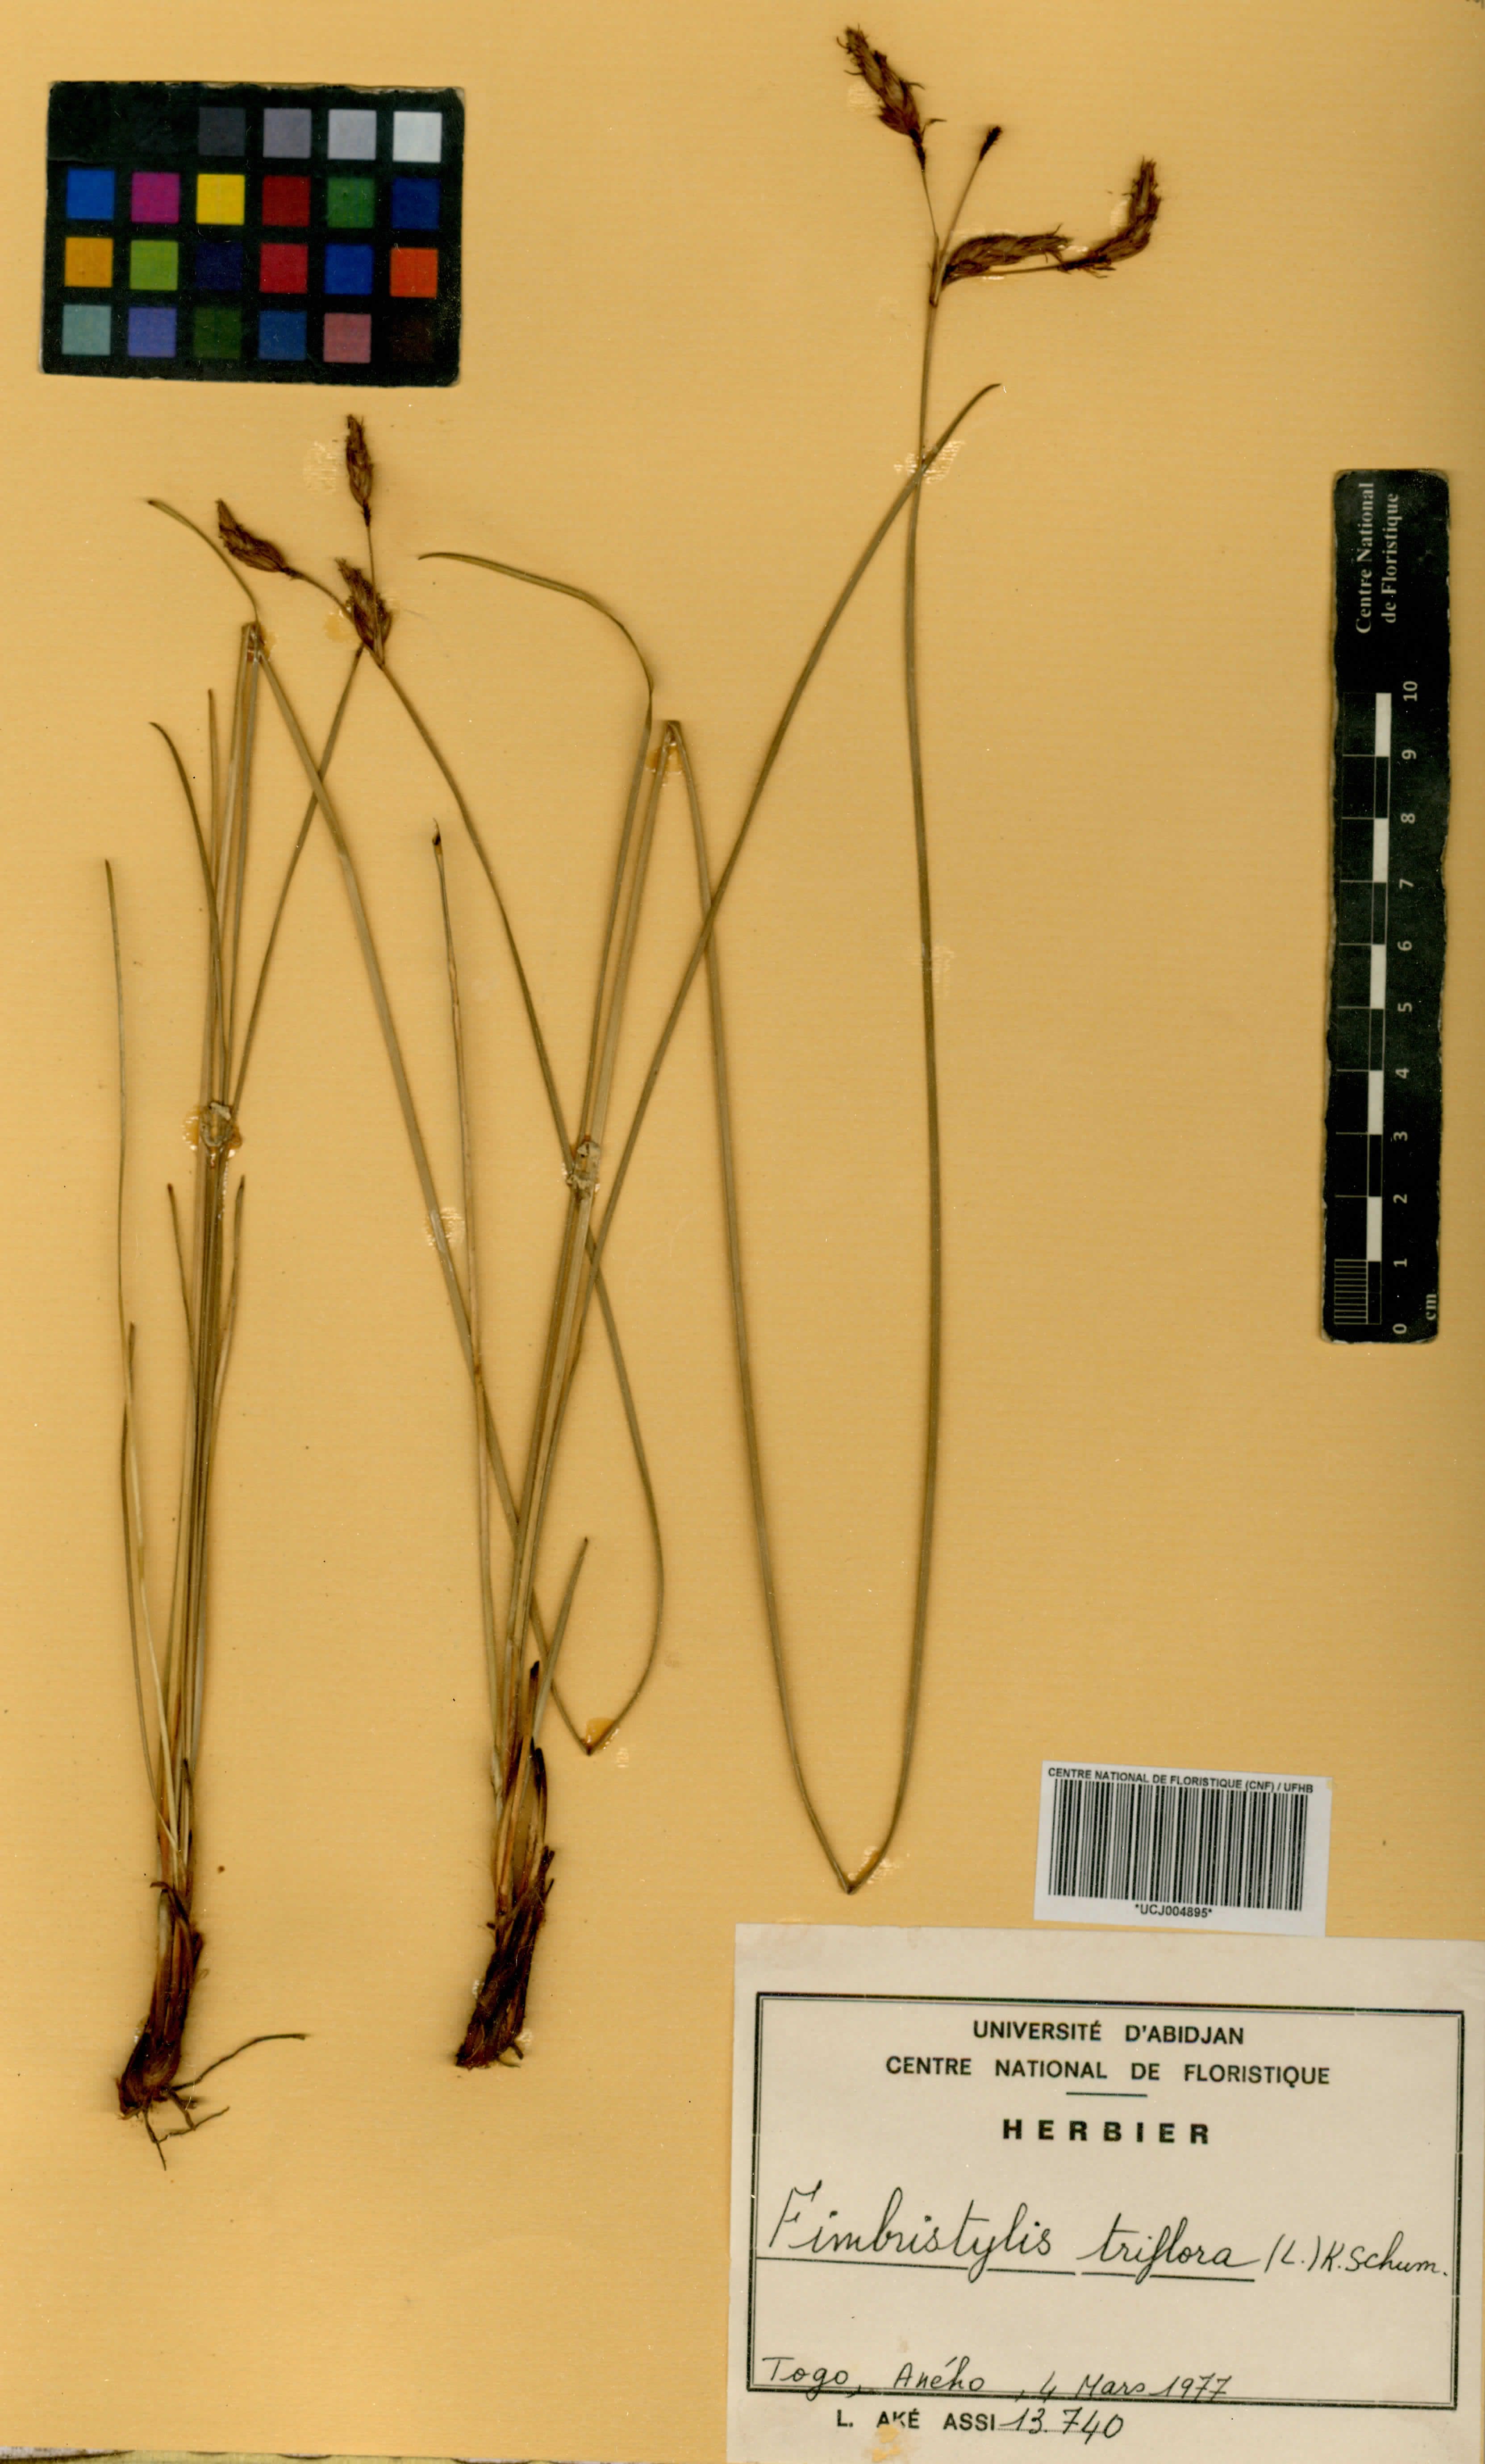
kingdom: Plantae
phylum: Tracheophyta
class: Liliopsida
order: Poales
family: Cyperaceae
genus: Abildgaardia
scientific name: Abildgaardia triflora
